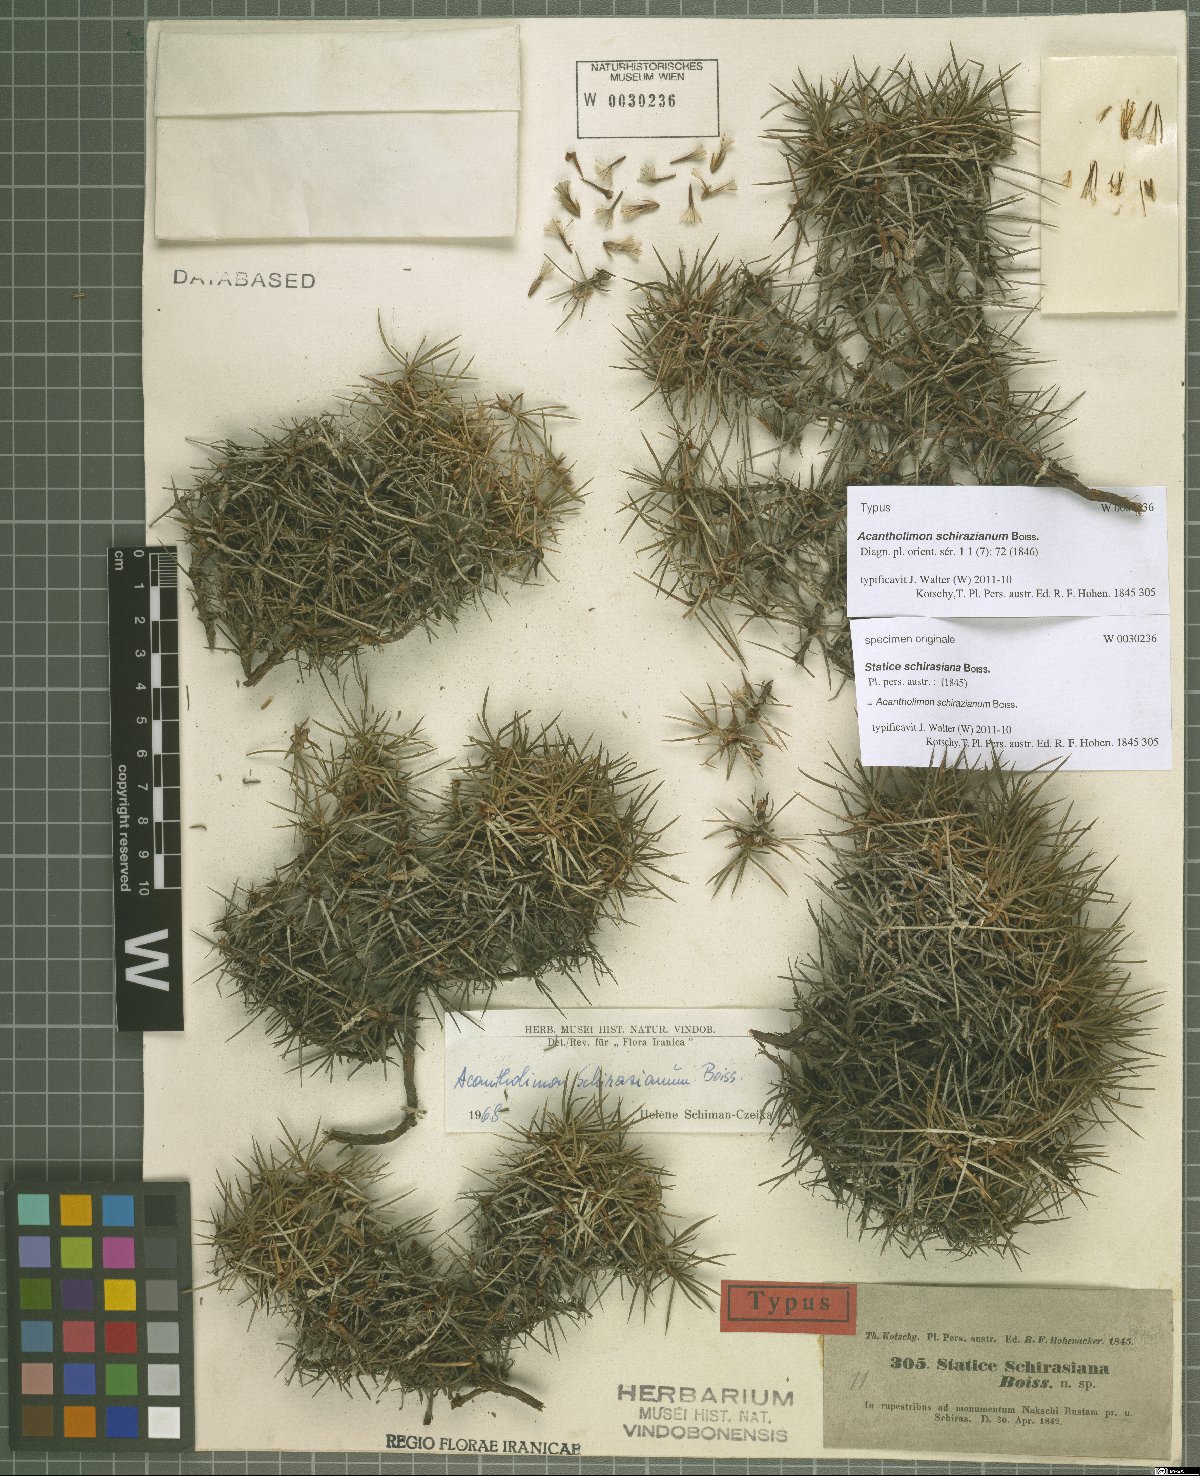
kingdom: Plantae
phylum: Tracheophyta
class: Magnoliopsida
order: Caryophyllales
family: Plumbaginaceae
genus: Acantholimon
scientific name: Acantholimon schirazianum
